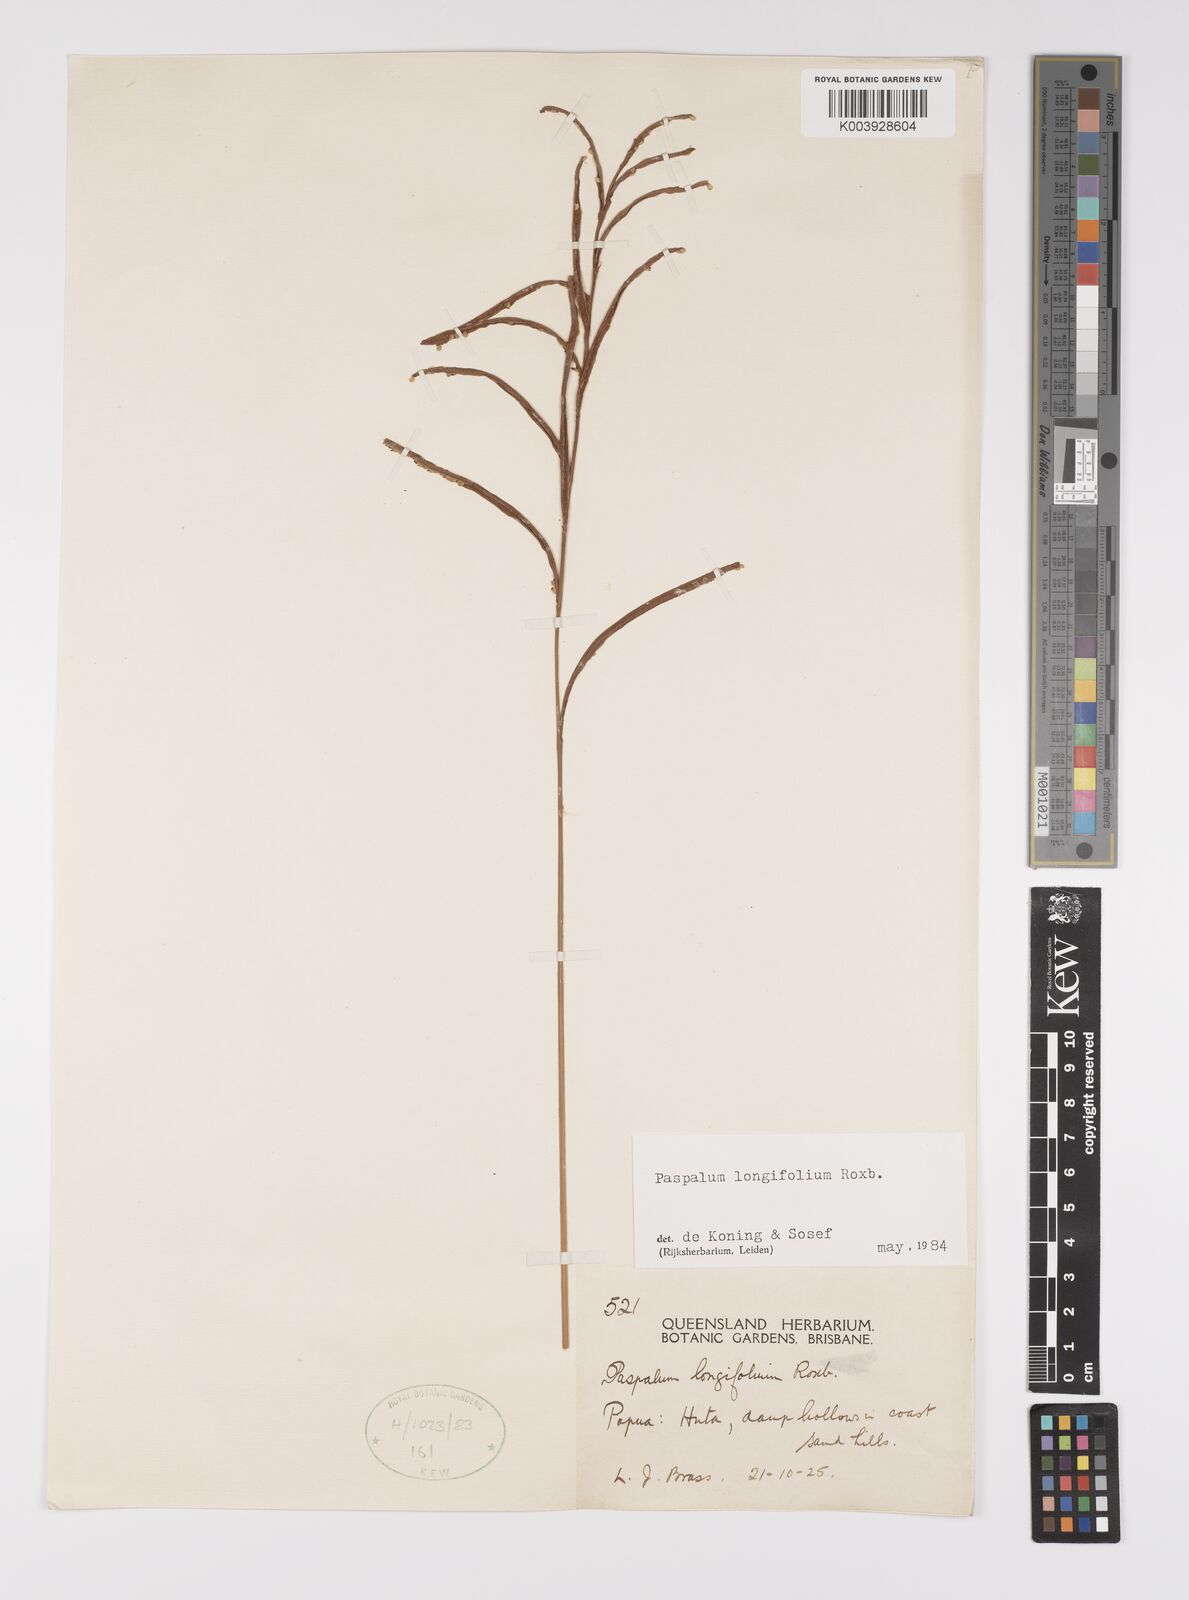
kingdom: Plantae
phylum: Tracheophyta
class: Liliopsida
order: Poales
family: Poaceae
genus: Paspalum
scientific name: Paspalum sumatrense
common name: Long-leaved paspalum
